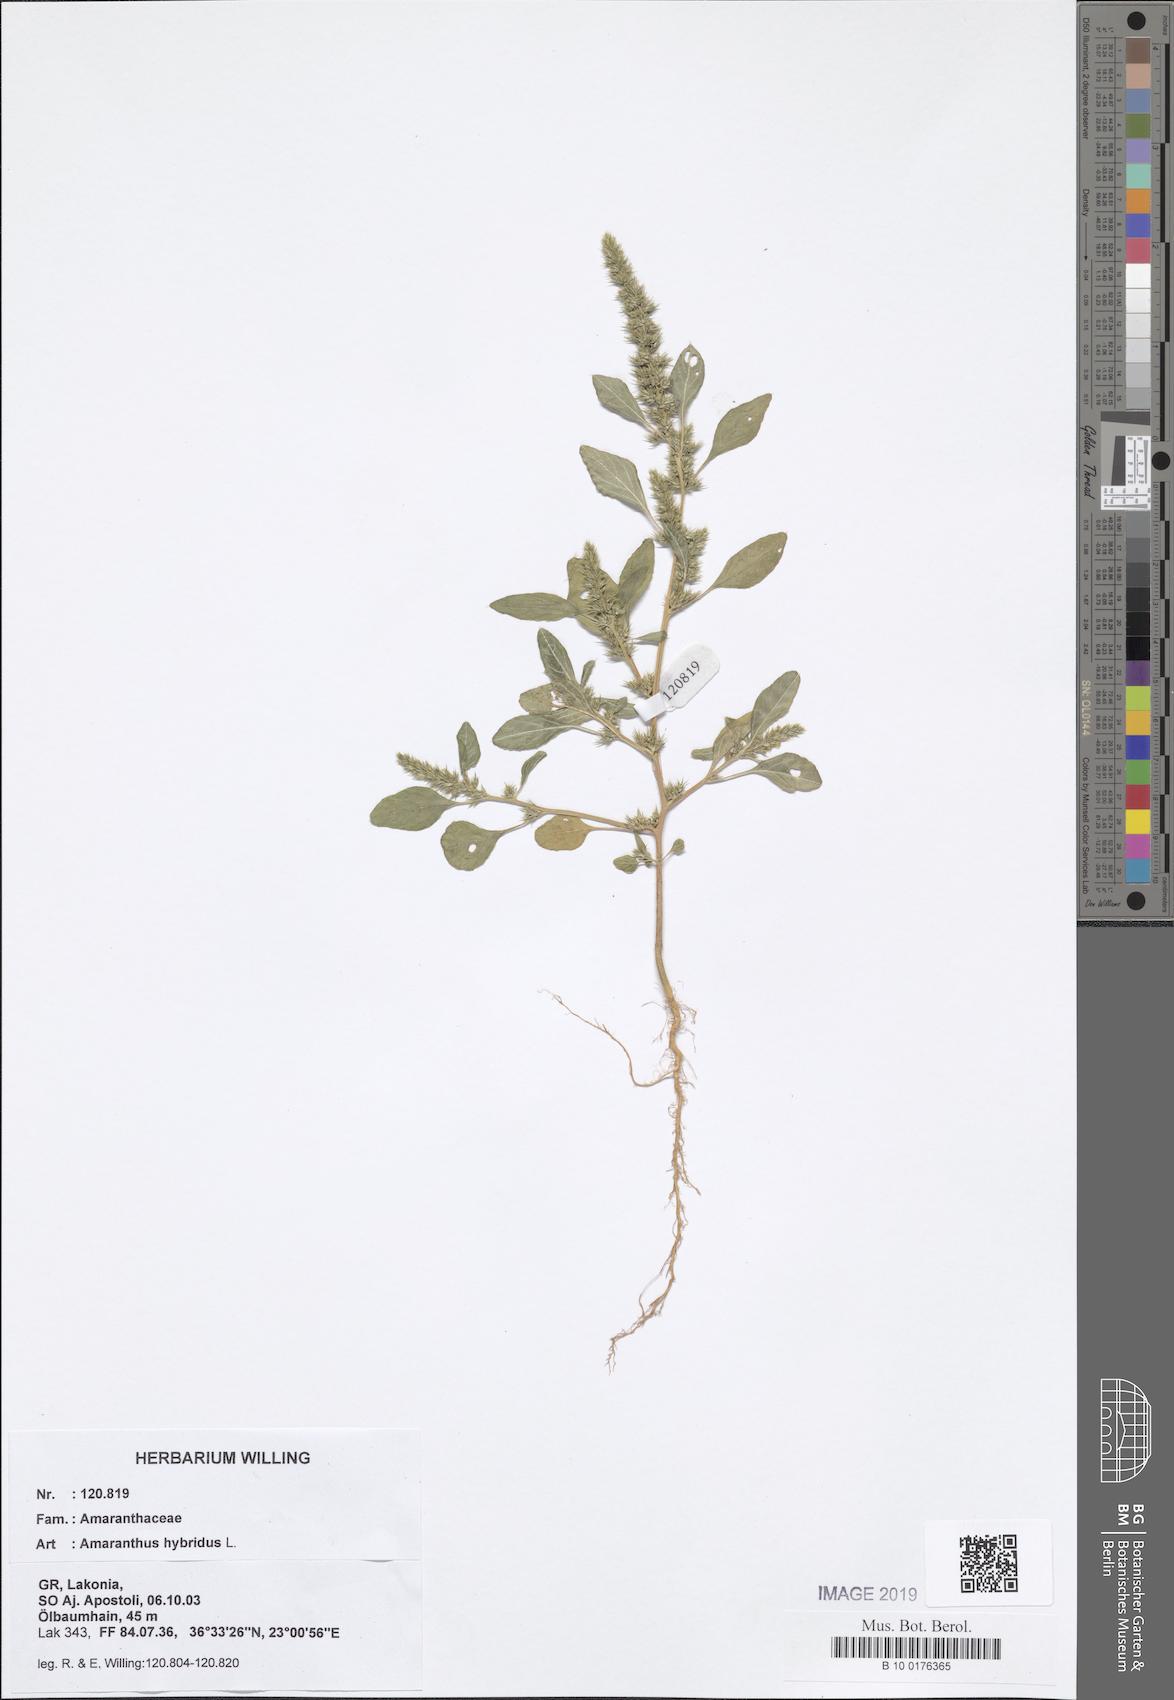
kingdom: Plantae
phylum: Tracheophyta
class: Magnoliopsida
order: Caryophyllales
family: Amaranthaceae
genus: Amaranthus
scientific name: Amaranthus hybridus
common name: Green amaranth
